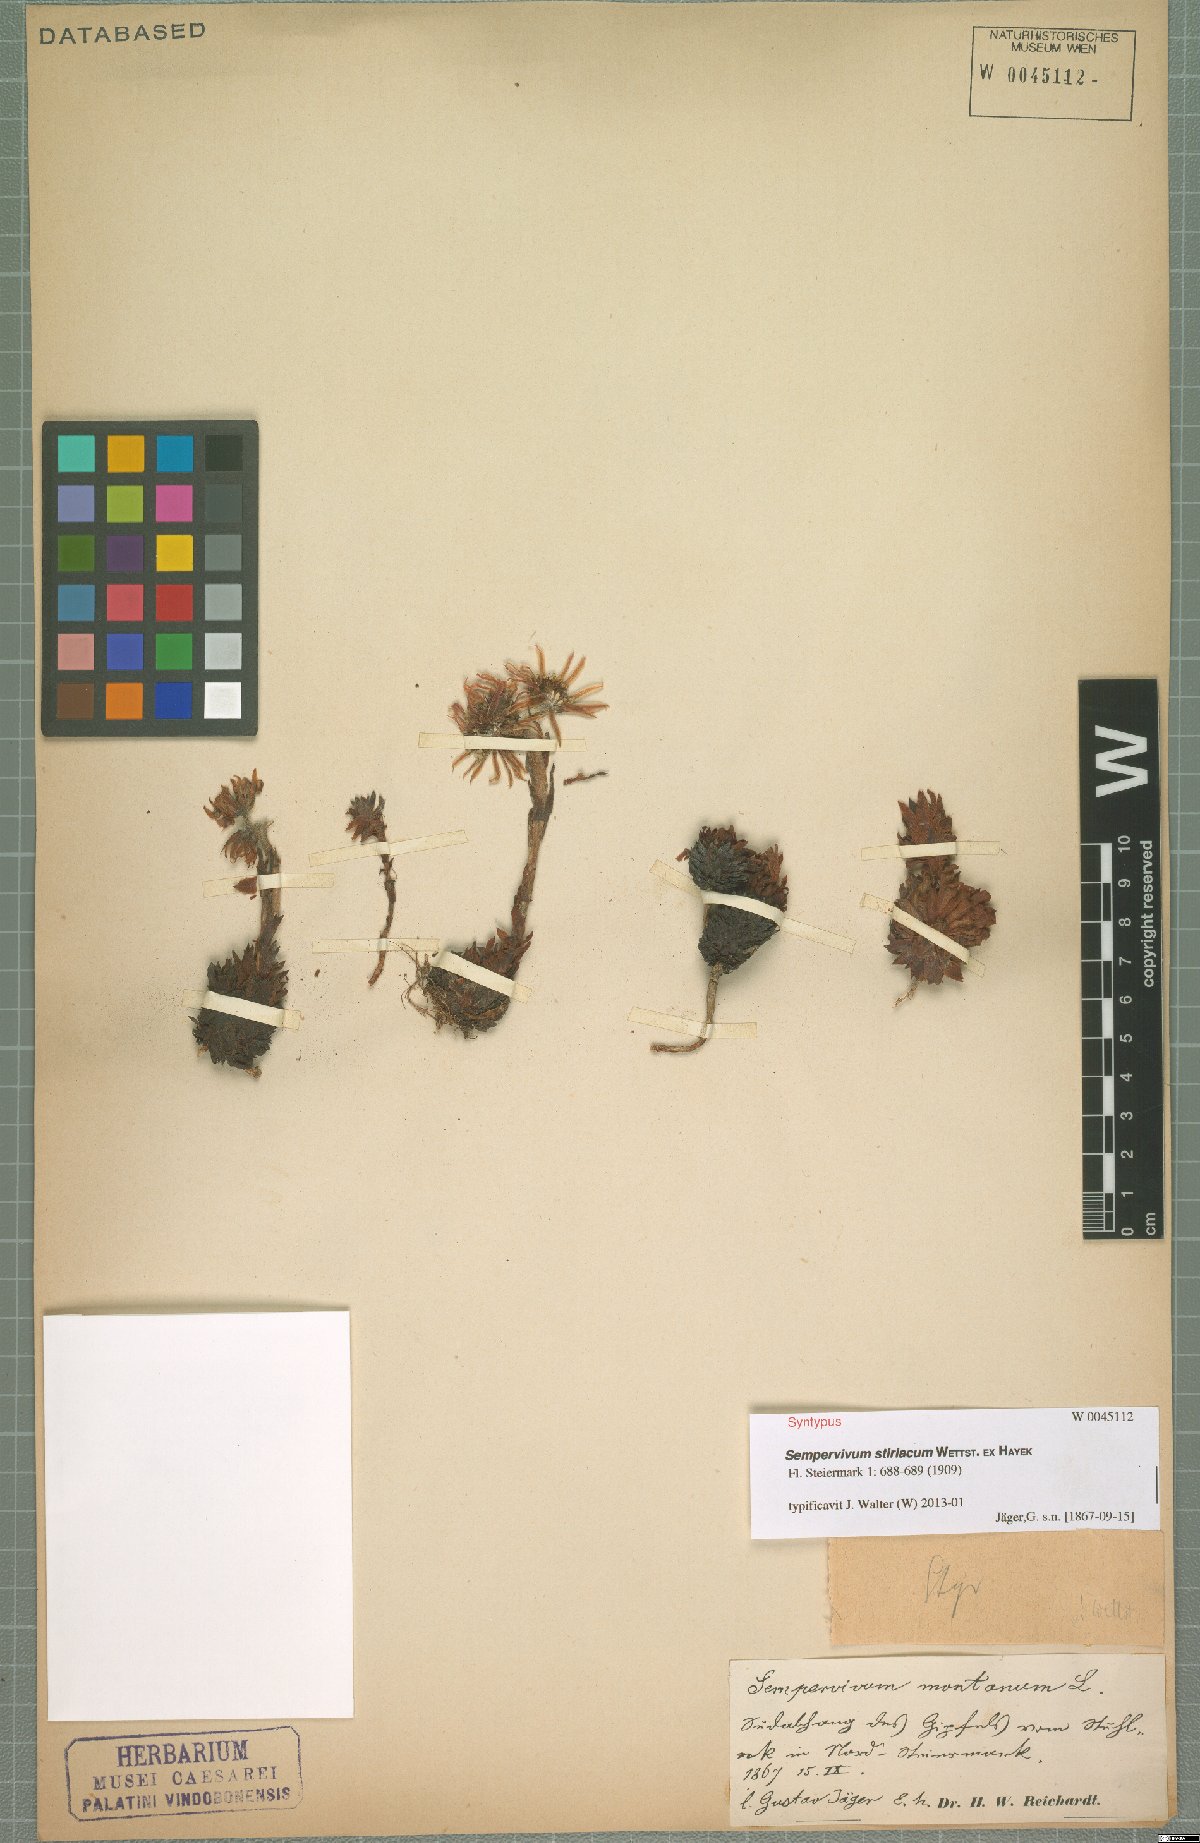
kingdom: Plantae
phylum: Tracheophyta
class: Magnoliopsida
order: Saxifragales
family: Crassulaceae
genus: Sempervivum
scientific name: Sempervivum montanum
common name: Mountain house-leek
